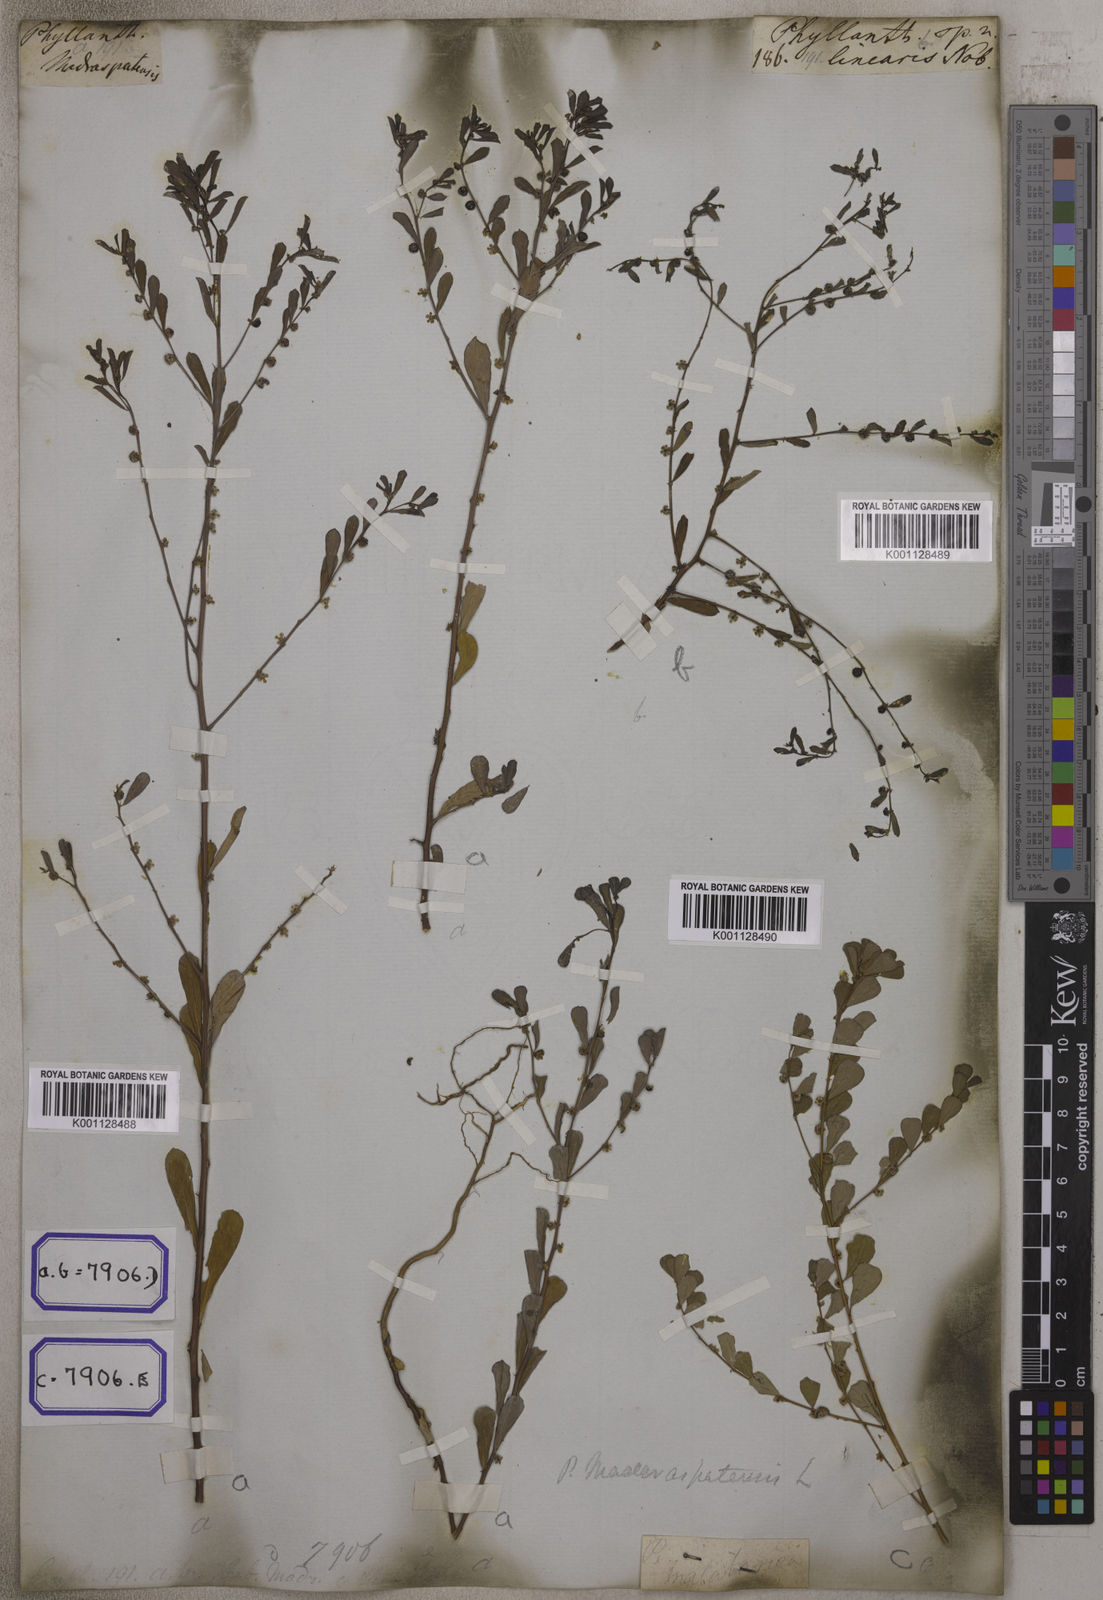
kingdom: Plantae
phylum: Tracheophyta
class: Magnoliopsida
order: Malpighiales
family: Euphorbiaceae
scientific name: Euphorbiaceae
